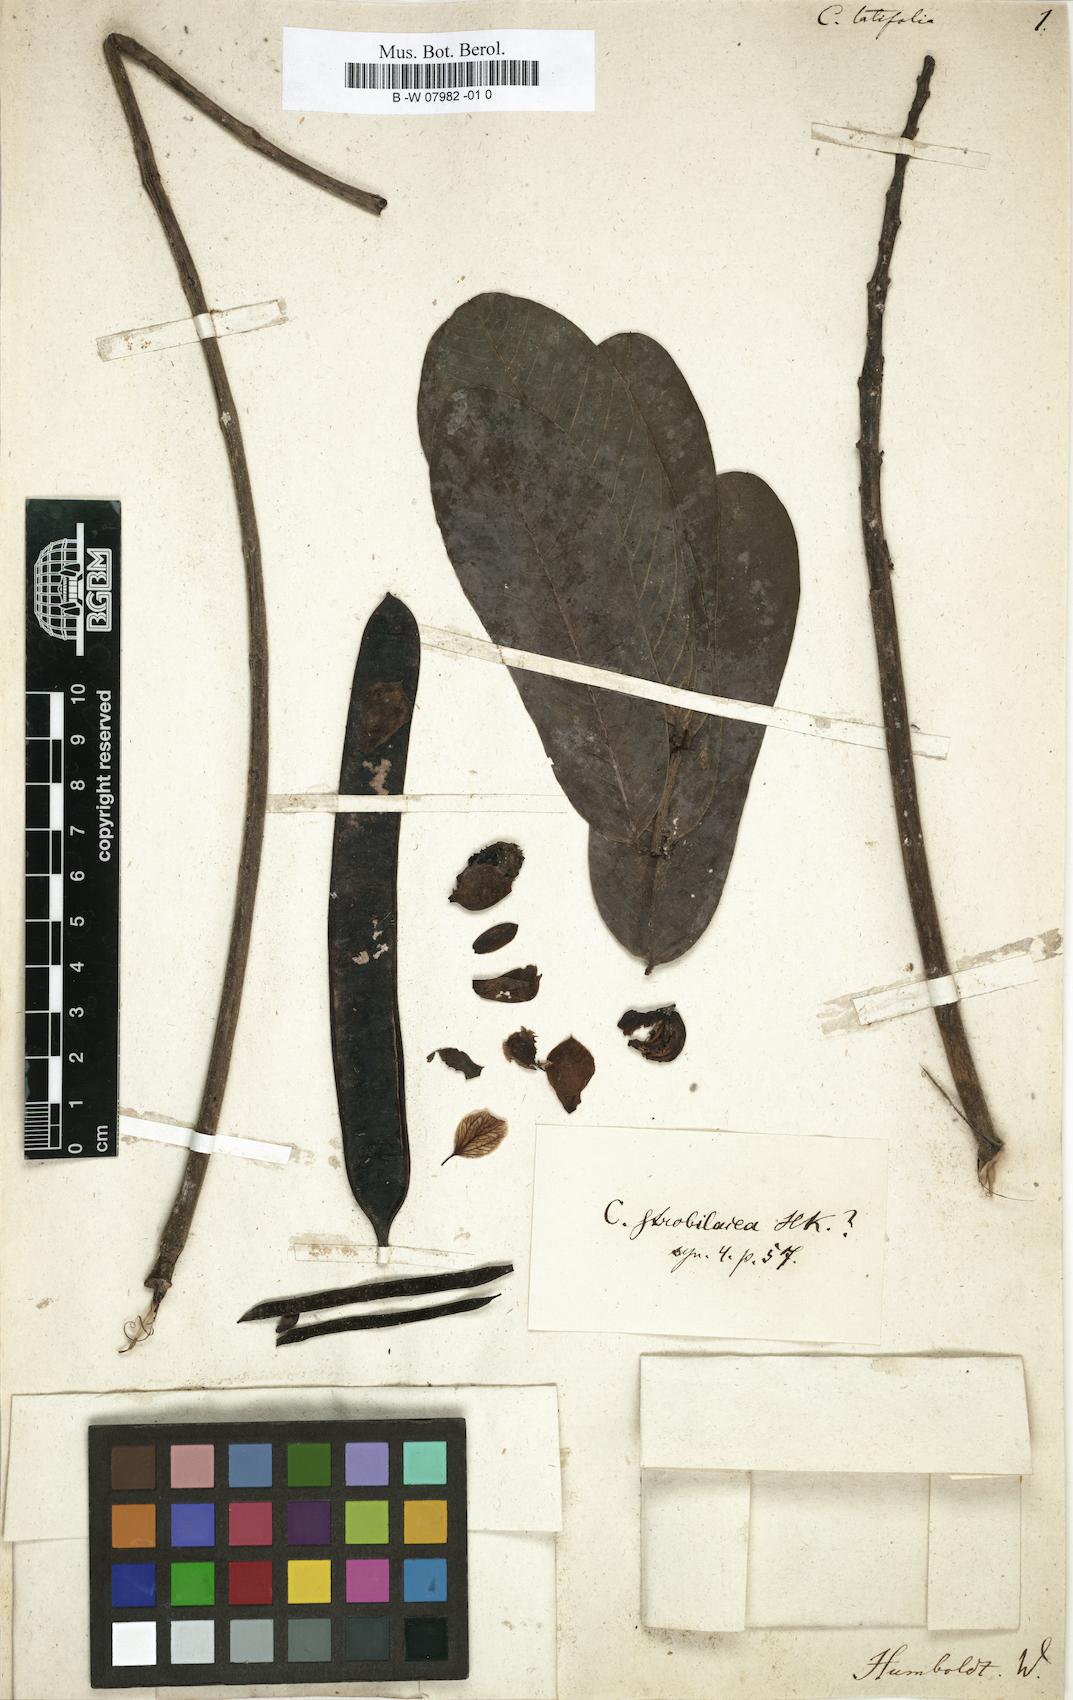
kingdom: Plantae
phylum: Tracheophyta
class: Magnoliopsida
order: Fabales
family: Fabaceae
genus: Senna
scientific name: Senna latifolia
